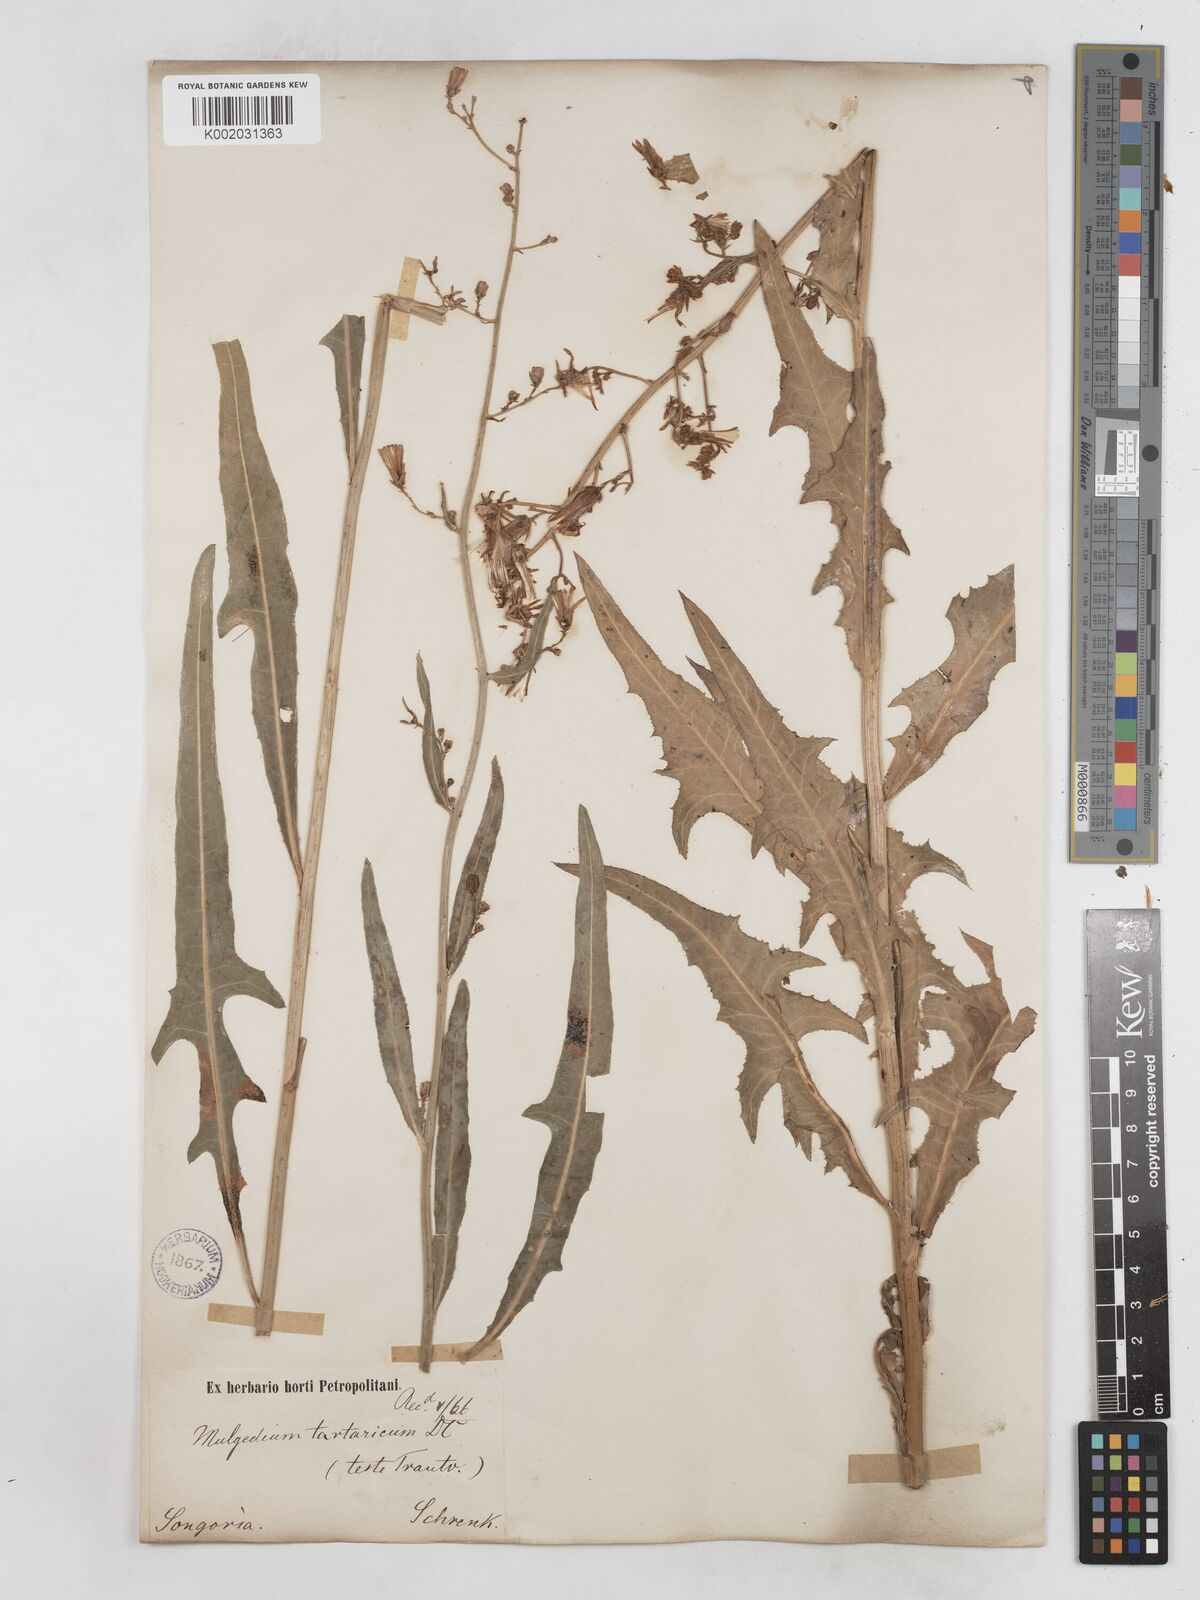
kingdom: Plantae
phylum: Tracheophyta
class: Magnoliopsida
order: Asterales
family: Asteraceae
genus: Lactuca
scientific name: Lactuca tatarica
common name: Blue lettuce
